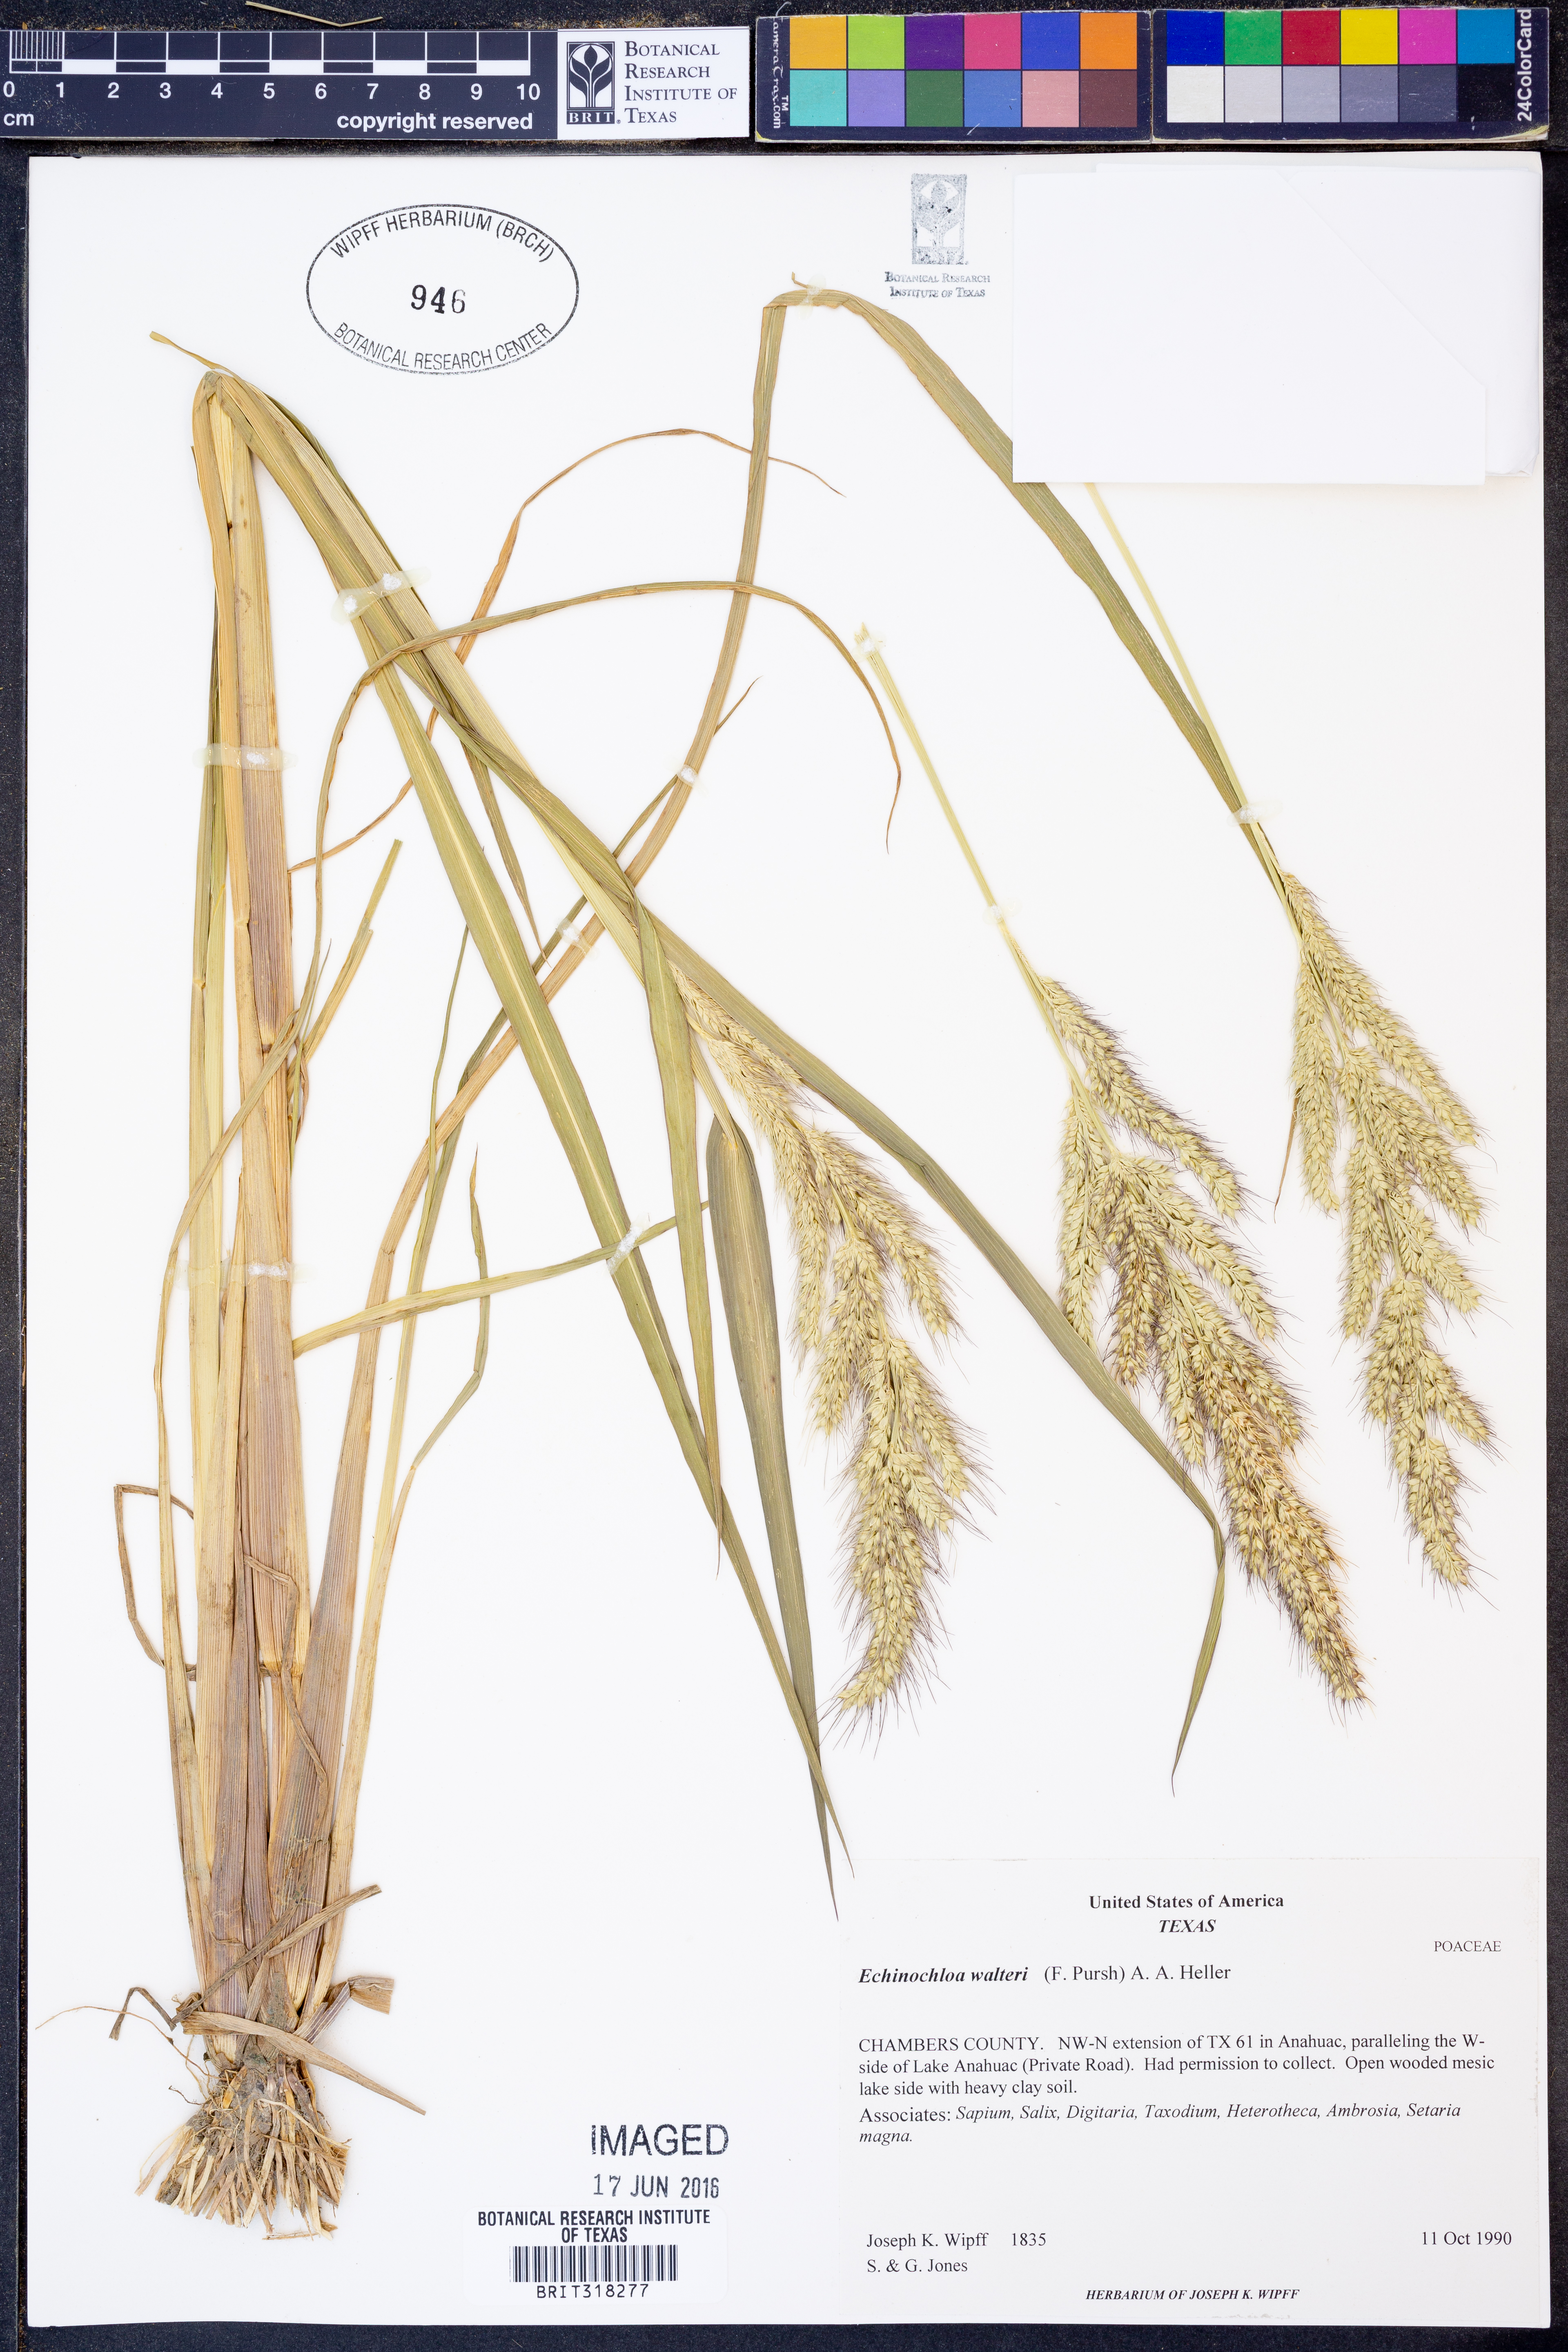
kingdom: Plantae
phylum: Tracheophyta
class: Liliopsida
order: Poales
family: Poaceae
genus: Echinochloa
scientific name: Echinochloa walteri
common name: Coast barnyard grass
